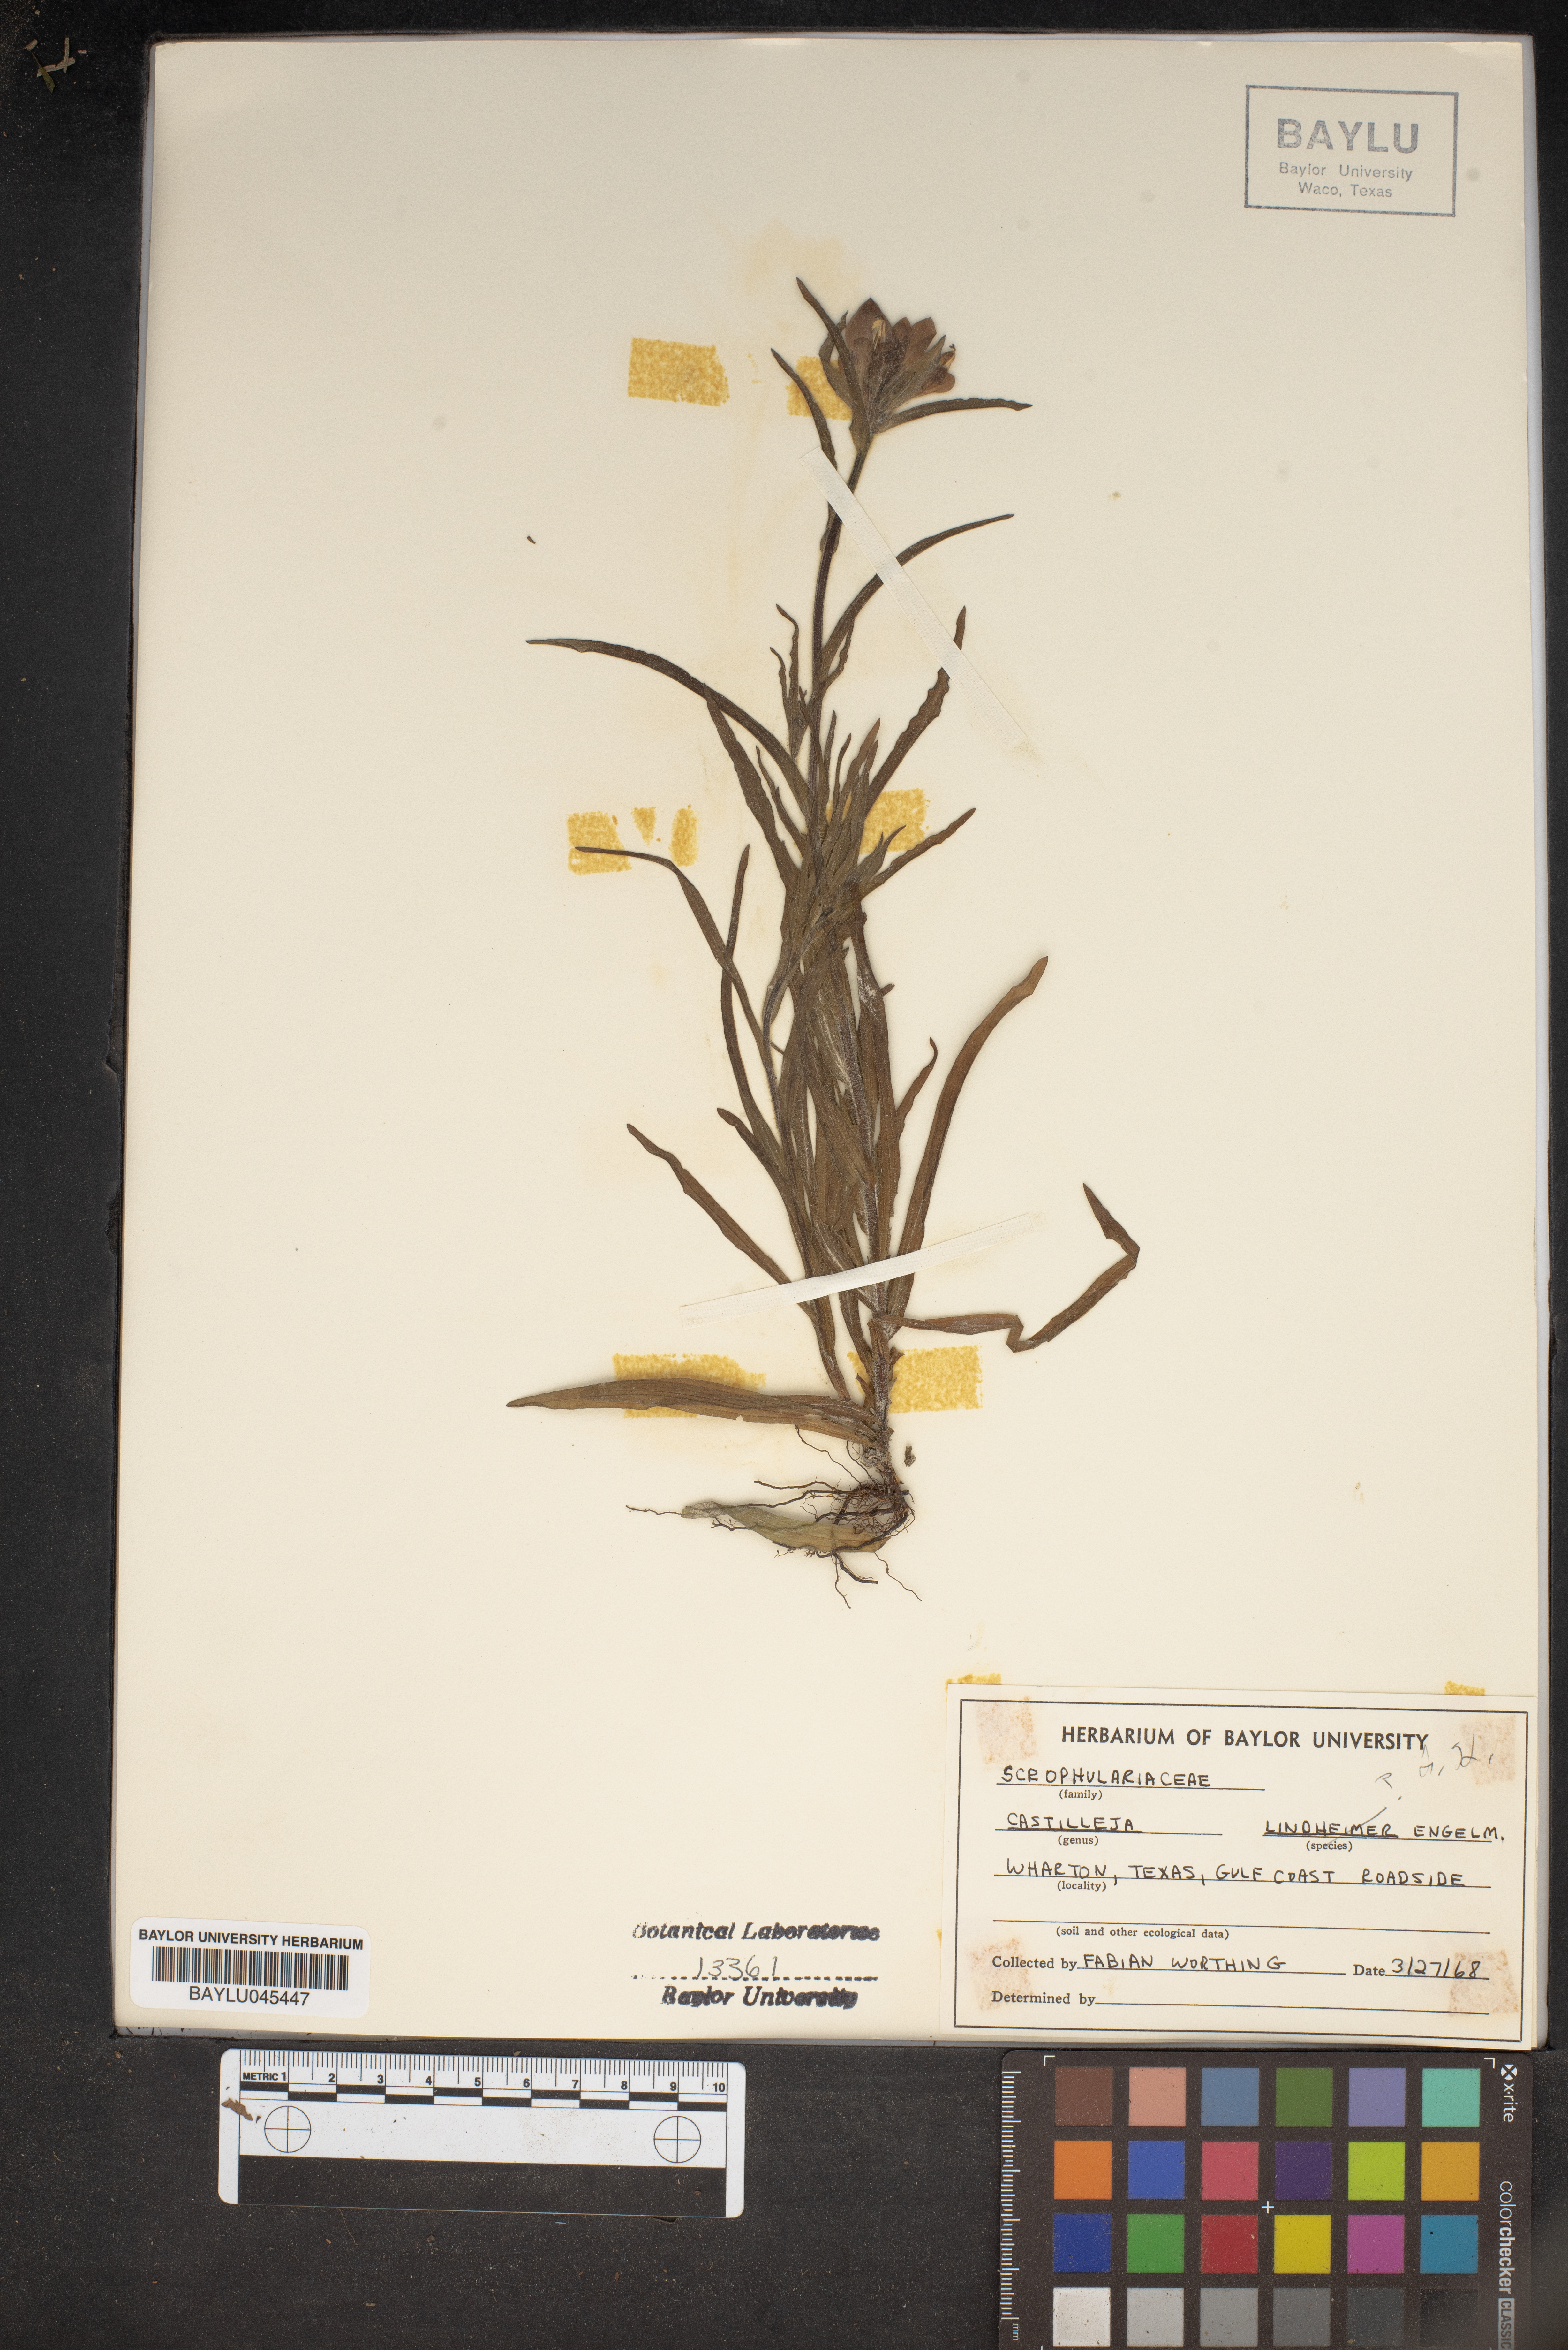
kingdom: Plantae
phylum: Tracheophyta
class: Magnoliopsida
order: Lamiales
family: Orobanchaceae
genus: Castilleja
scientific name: Castilleja lindheimeri
